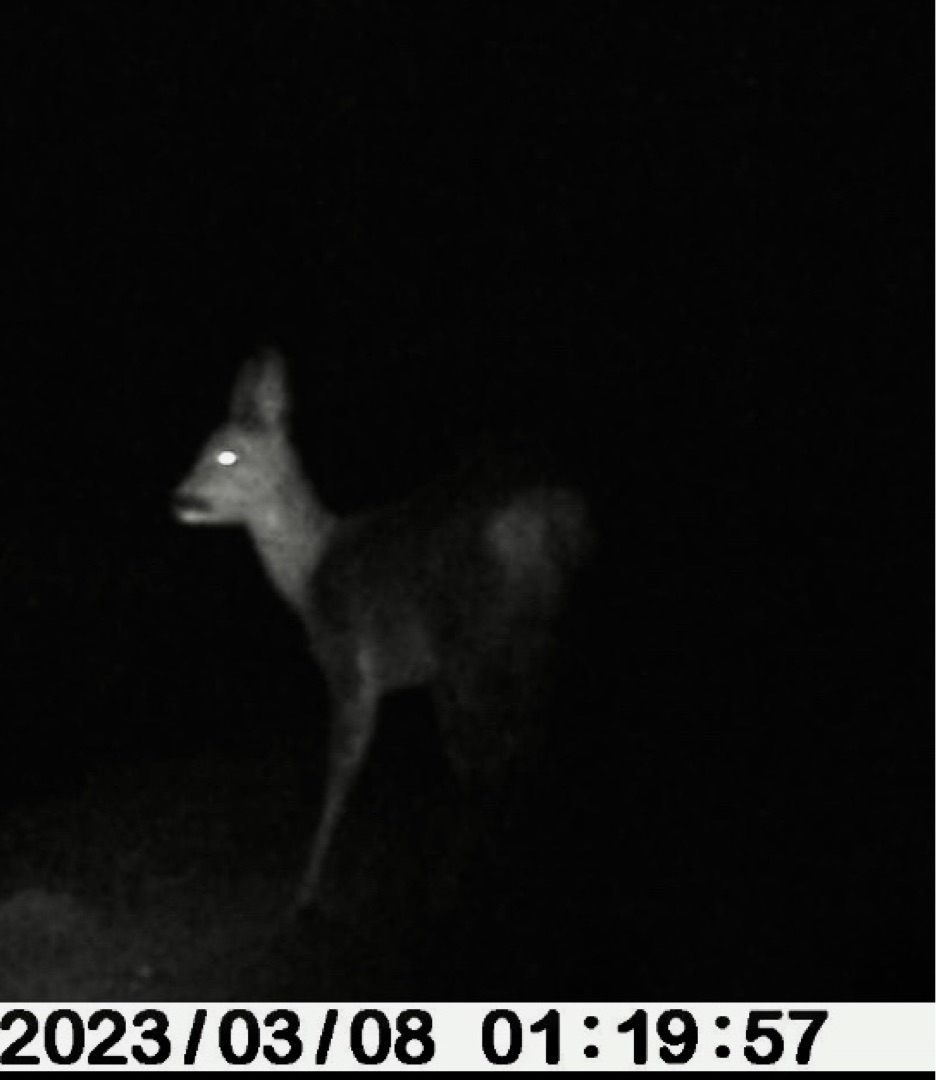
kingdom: Animalia
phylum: Chordata
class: Mammalia
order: Artiodactyla
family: Cervidae
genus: Capreolus
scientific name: Capreolus capreolus
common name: Rådyr
